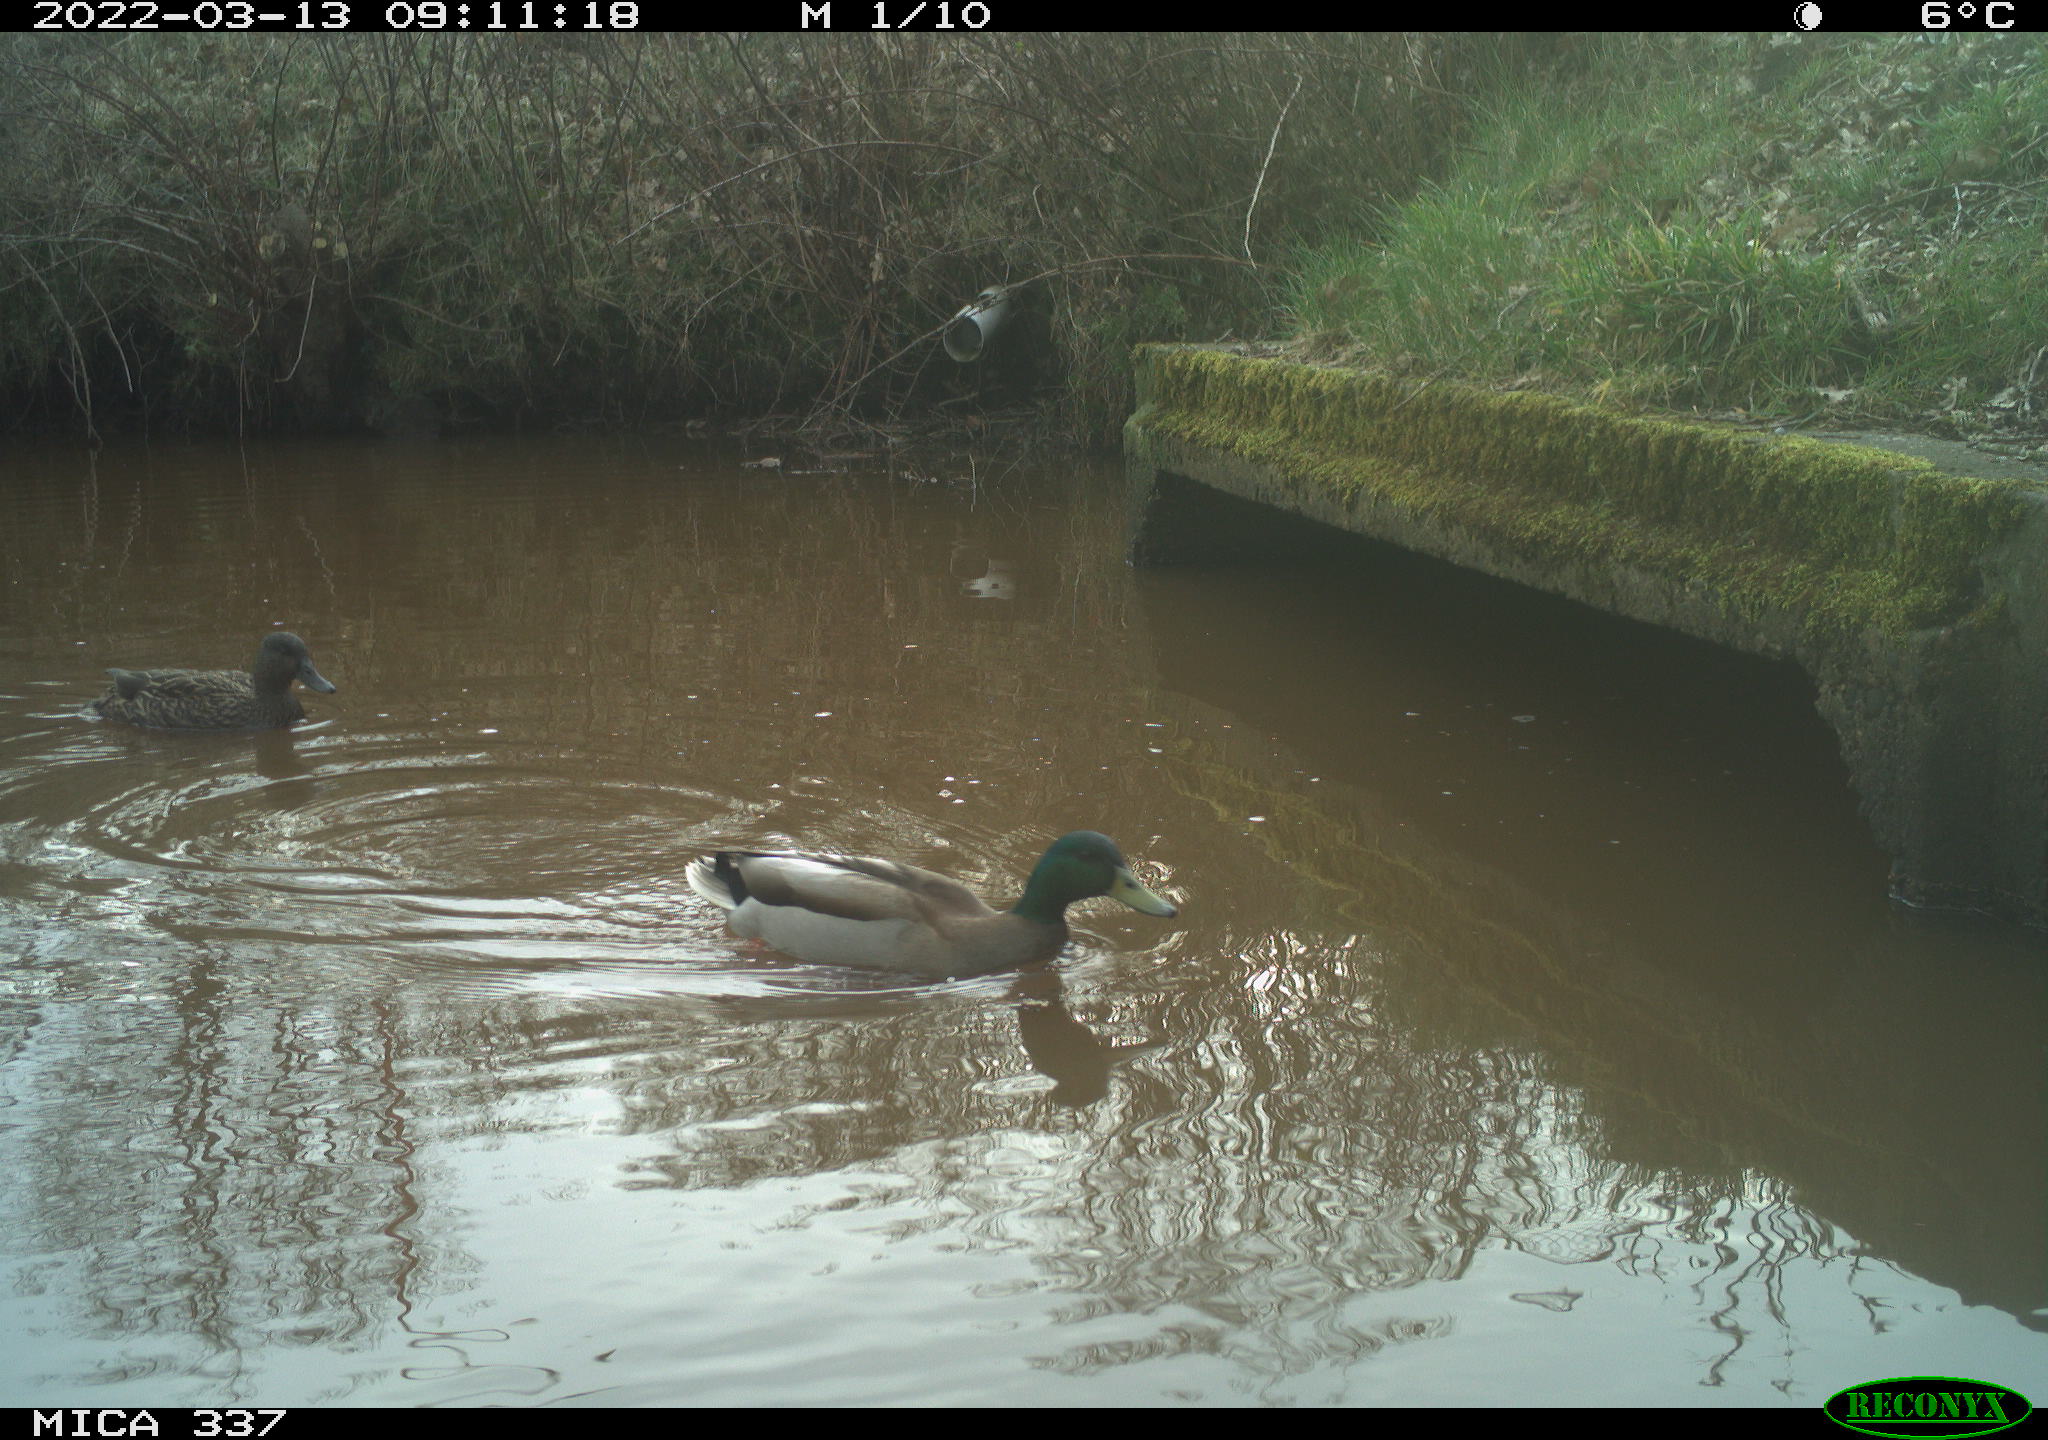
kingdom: Animalia
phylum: Chordata
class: Aves
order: Gruiformes
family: Rallidae
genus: Fulica
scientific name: Fulica atra
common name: Eurasian coot
